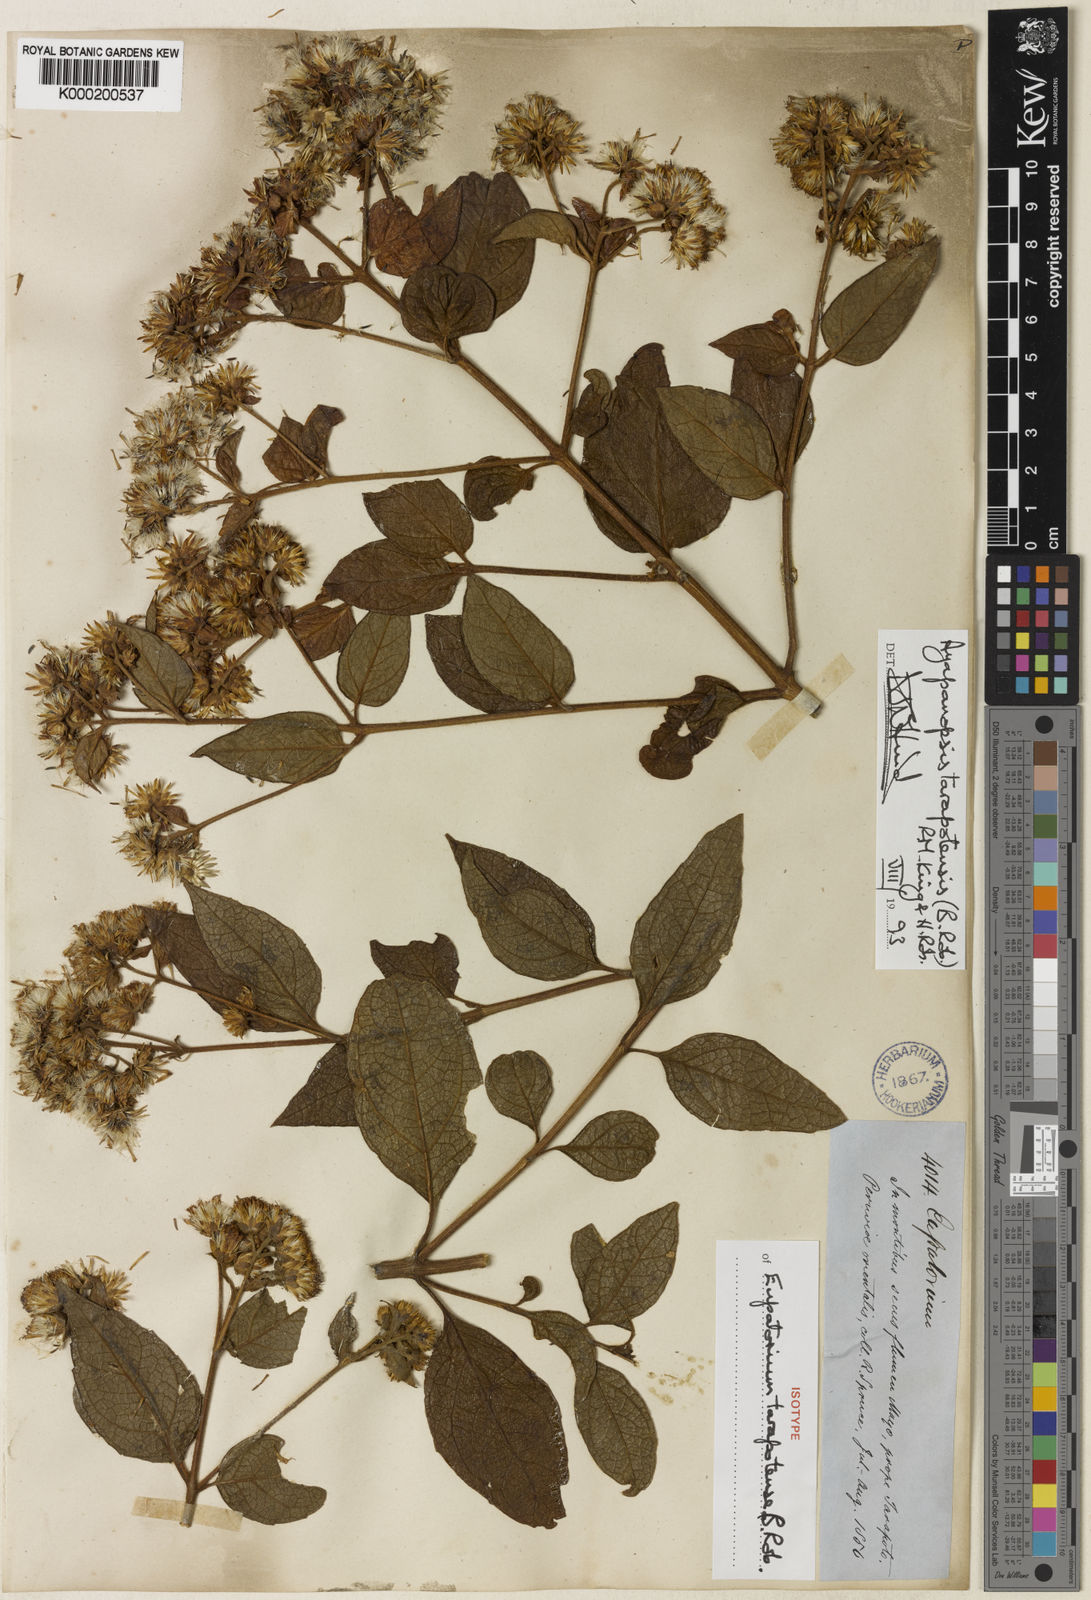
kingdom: Plantae
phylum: Tracheophyta
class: Magnoliopsida
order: Asterales
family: Asteraceae
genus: Ayapanopsis
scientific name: Ayapanopsis tarapotensis
